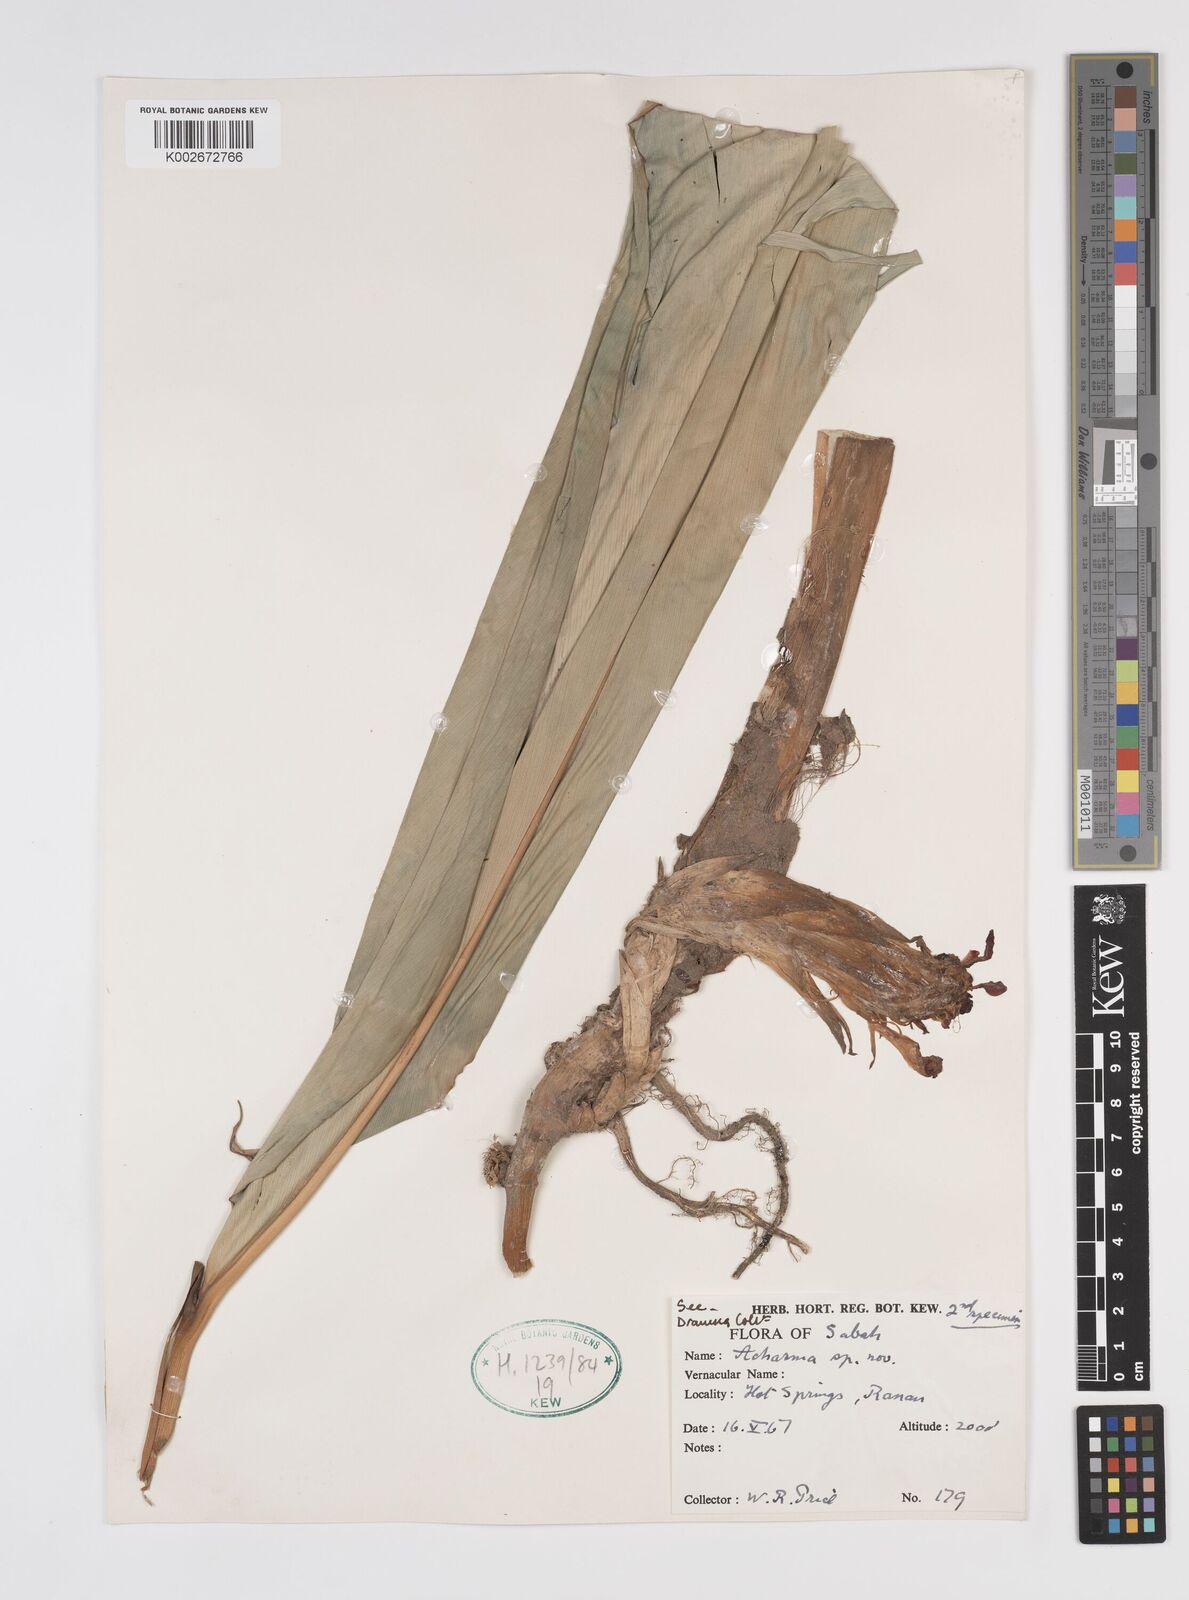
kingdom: Plantae
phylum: Tracheophyta
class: Liliopsida
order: Zingiberales
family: Zingiberaceae
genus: Etlingera
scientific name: Etlingera punicea
